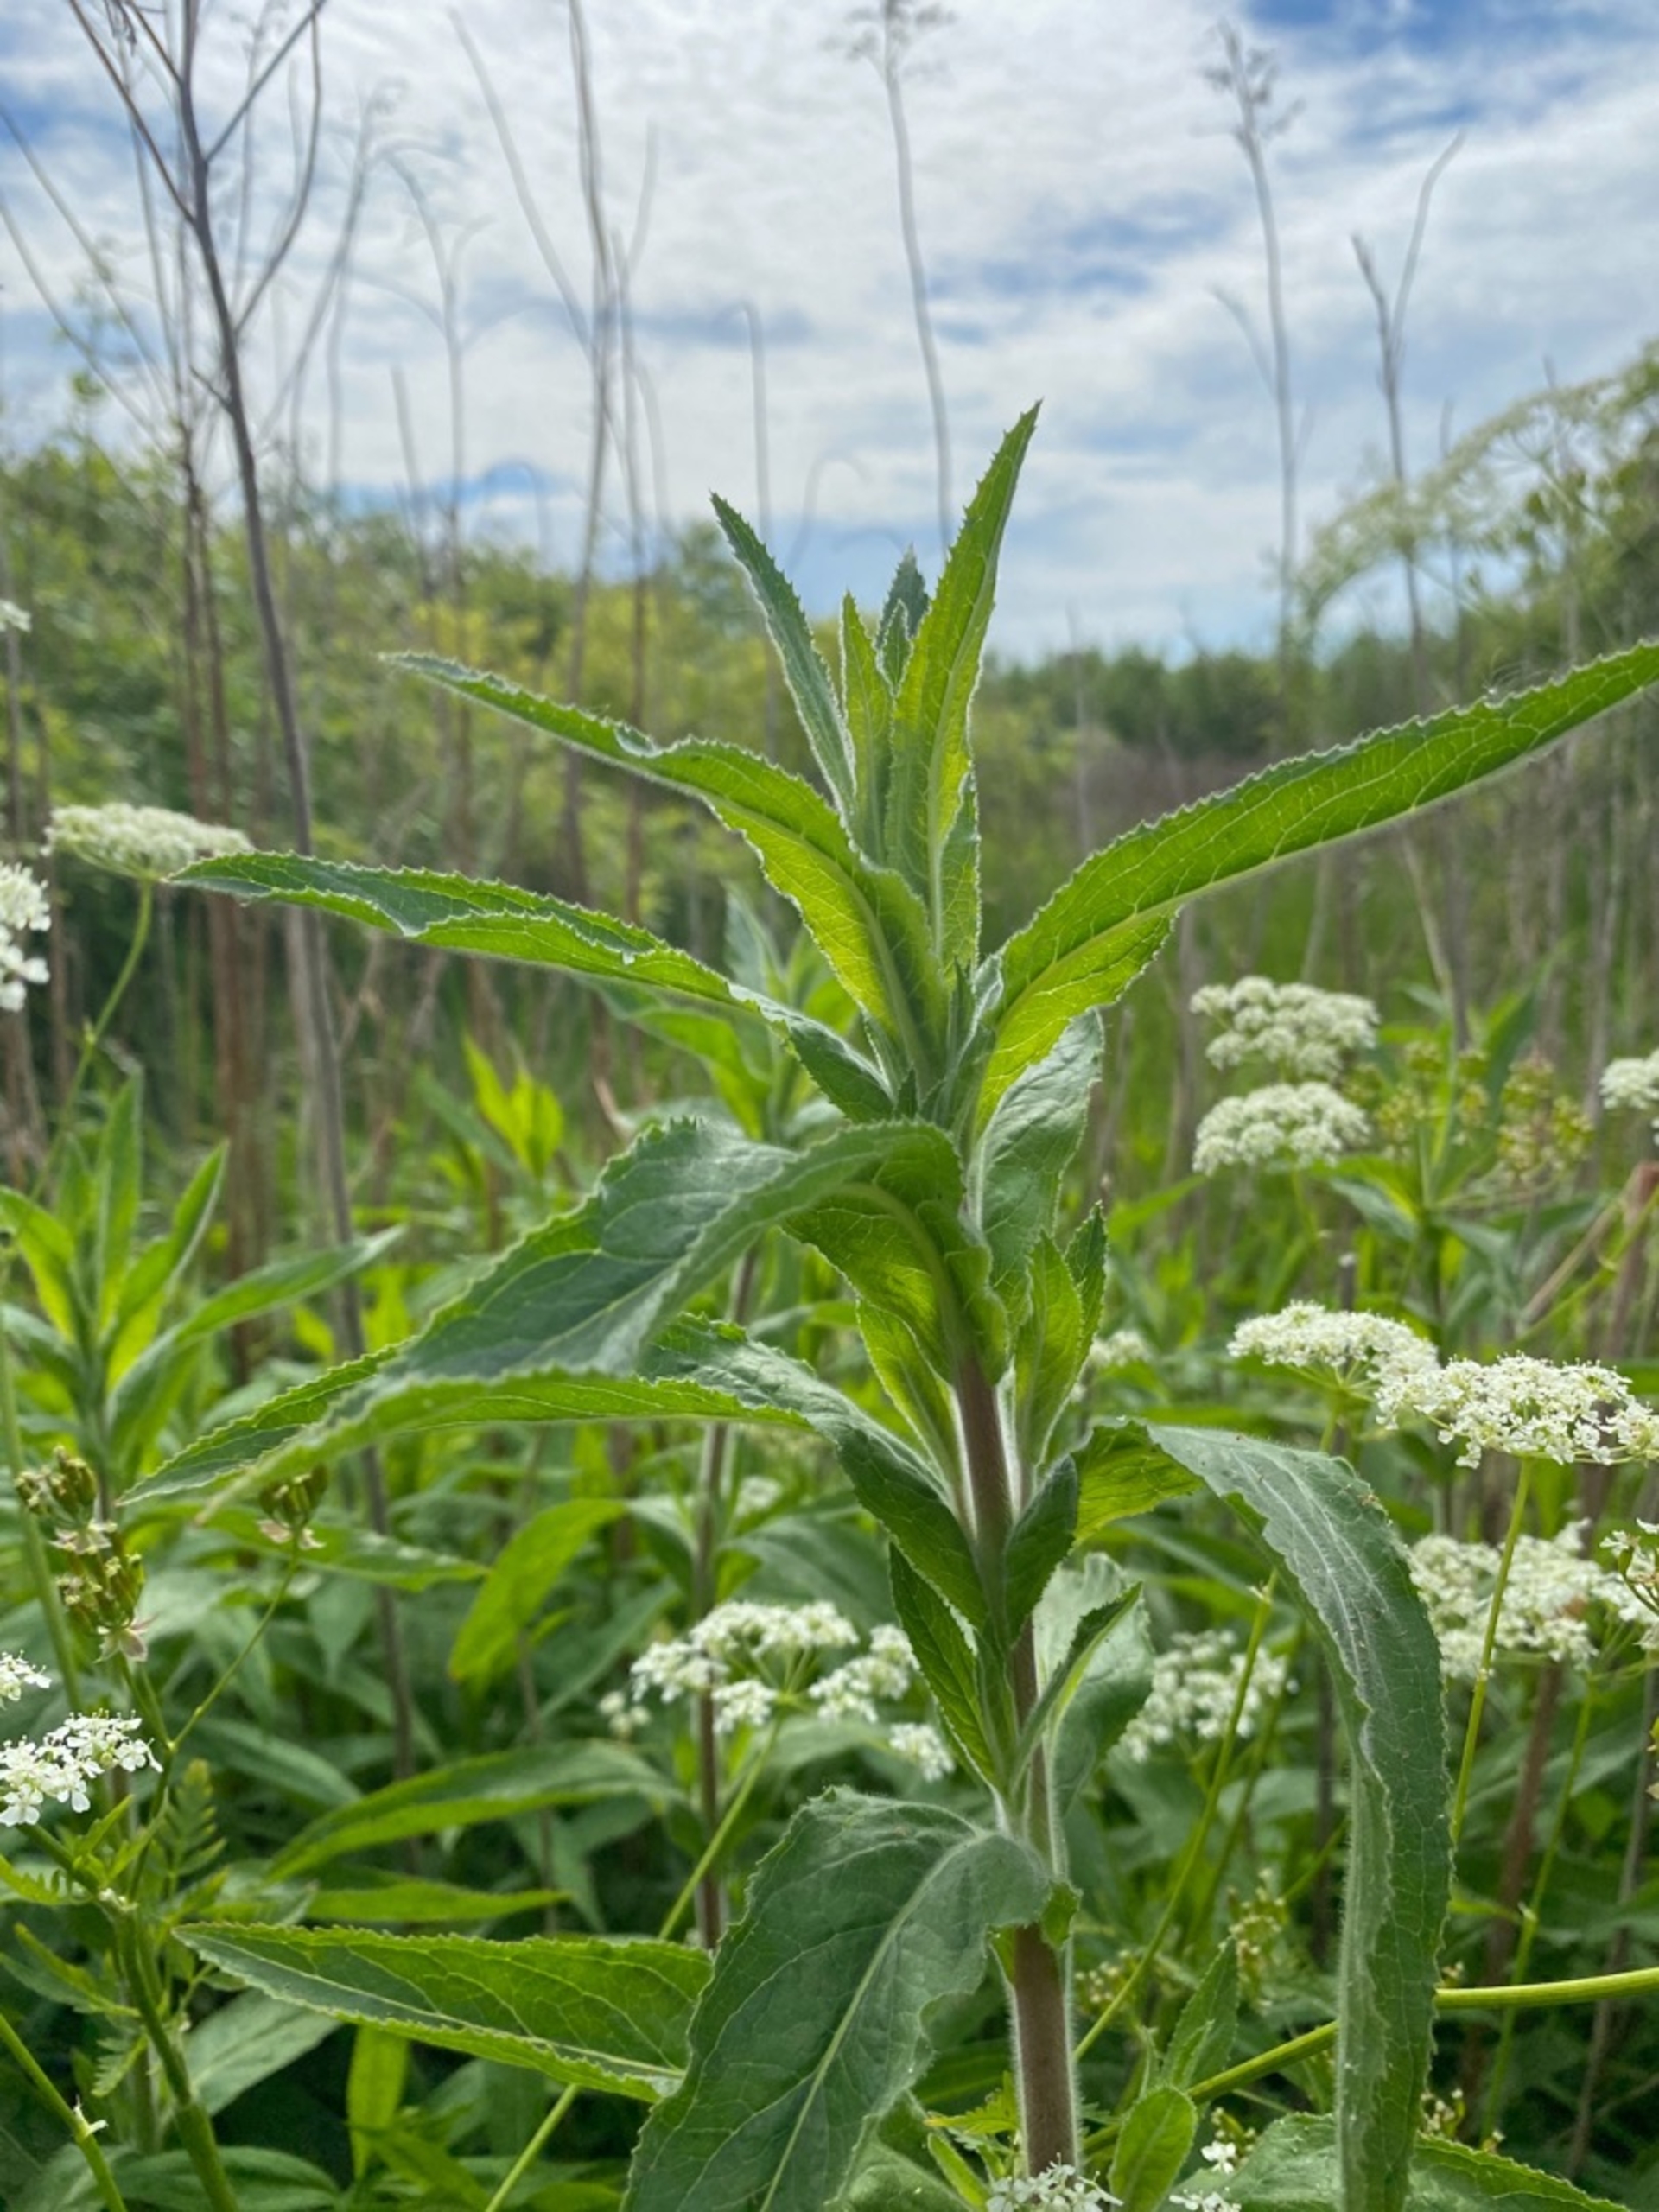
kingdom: Plantae
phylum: Tracheophyta
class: Magnoliopsida
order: Myrtales
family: Onagraceae
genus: Epilobium
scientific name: Epilobium hirsutum
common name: Lådden dueurt
